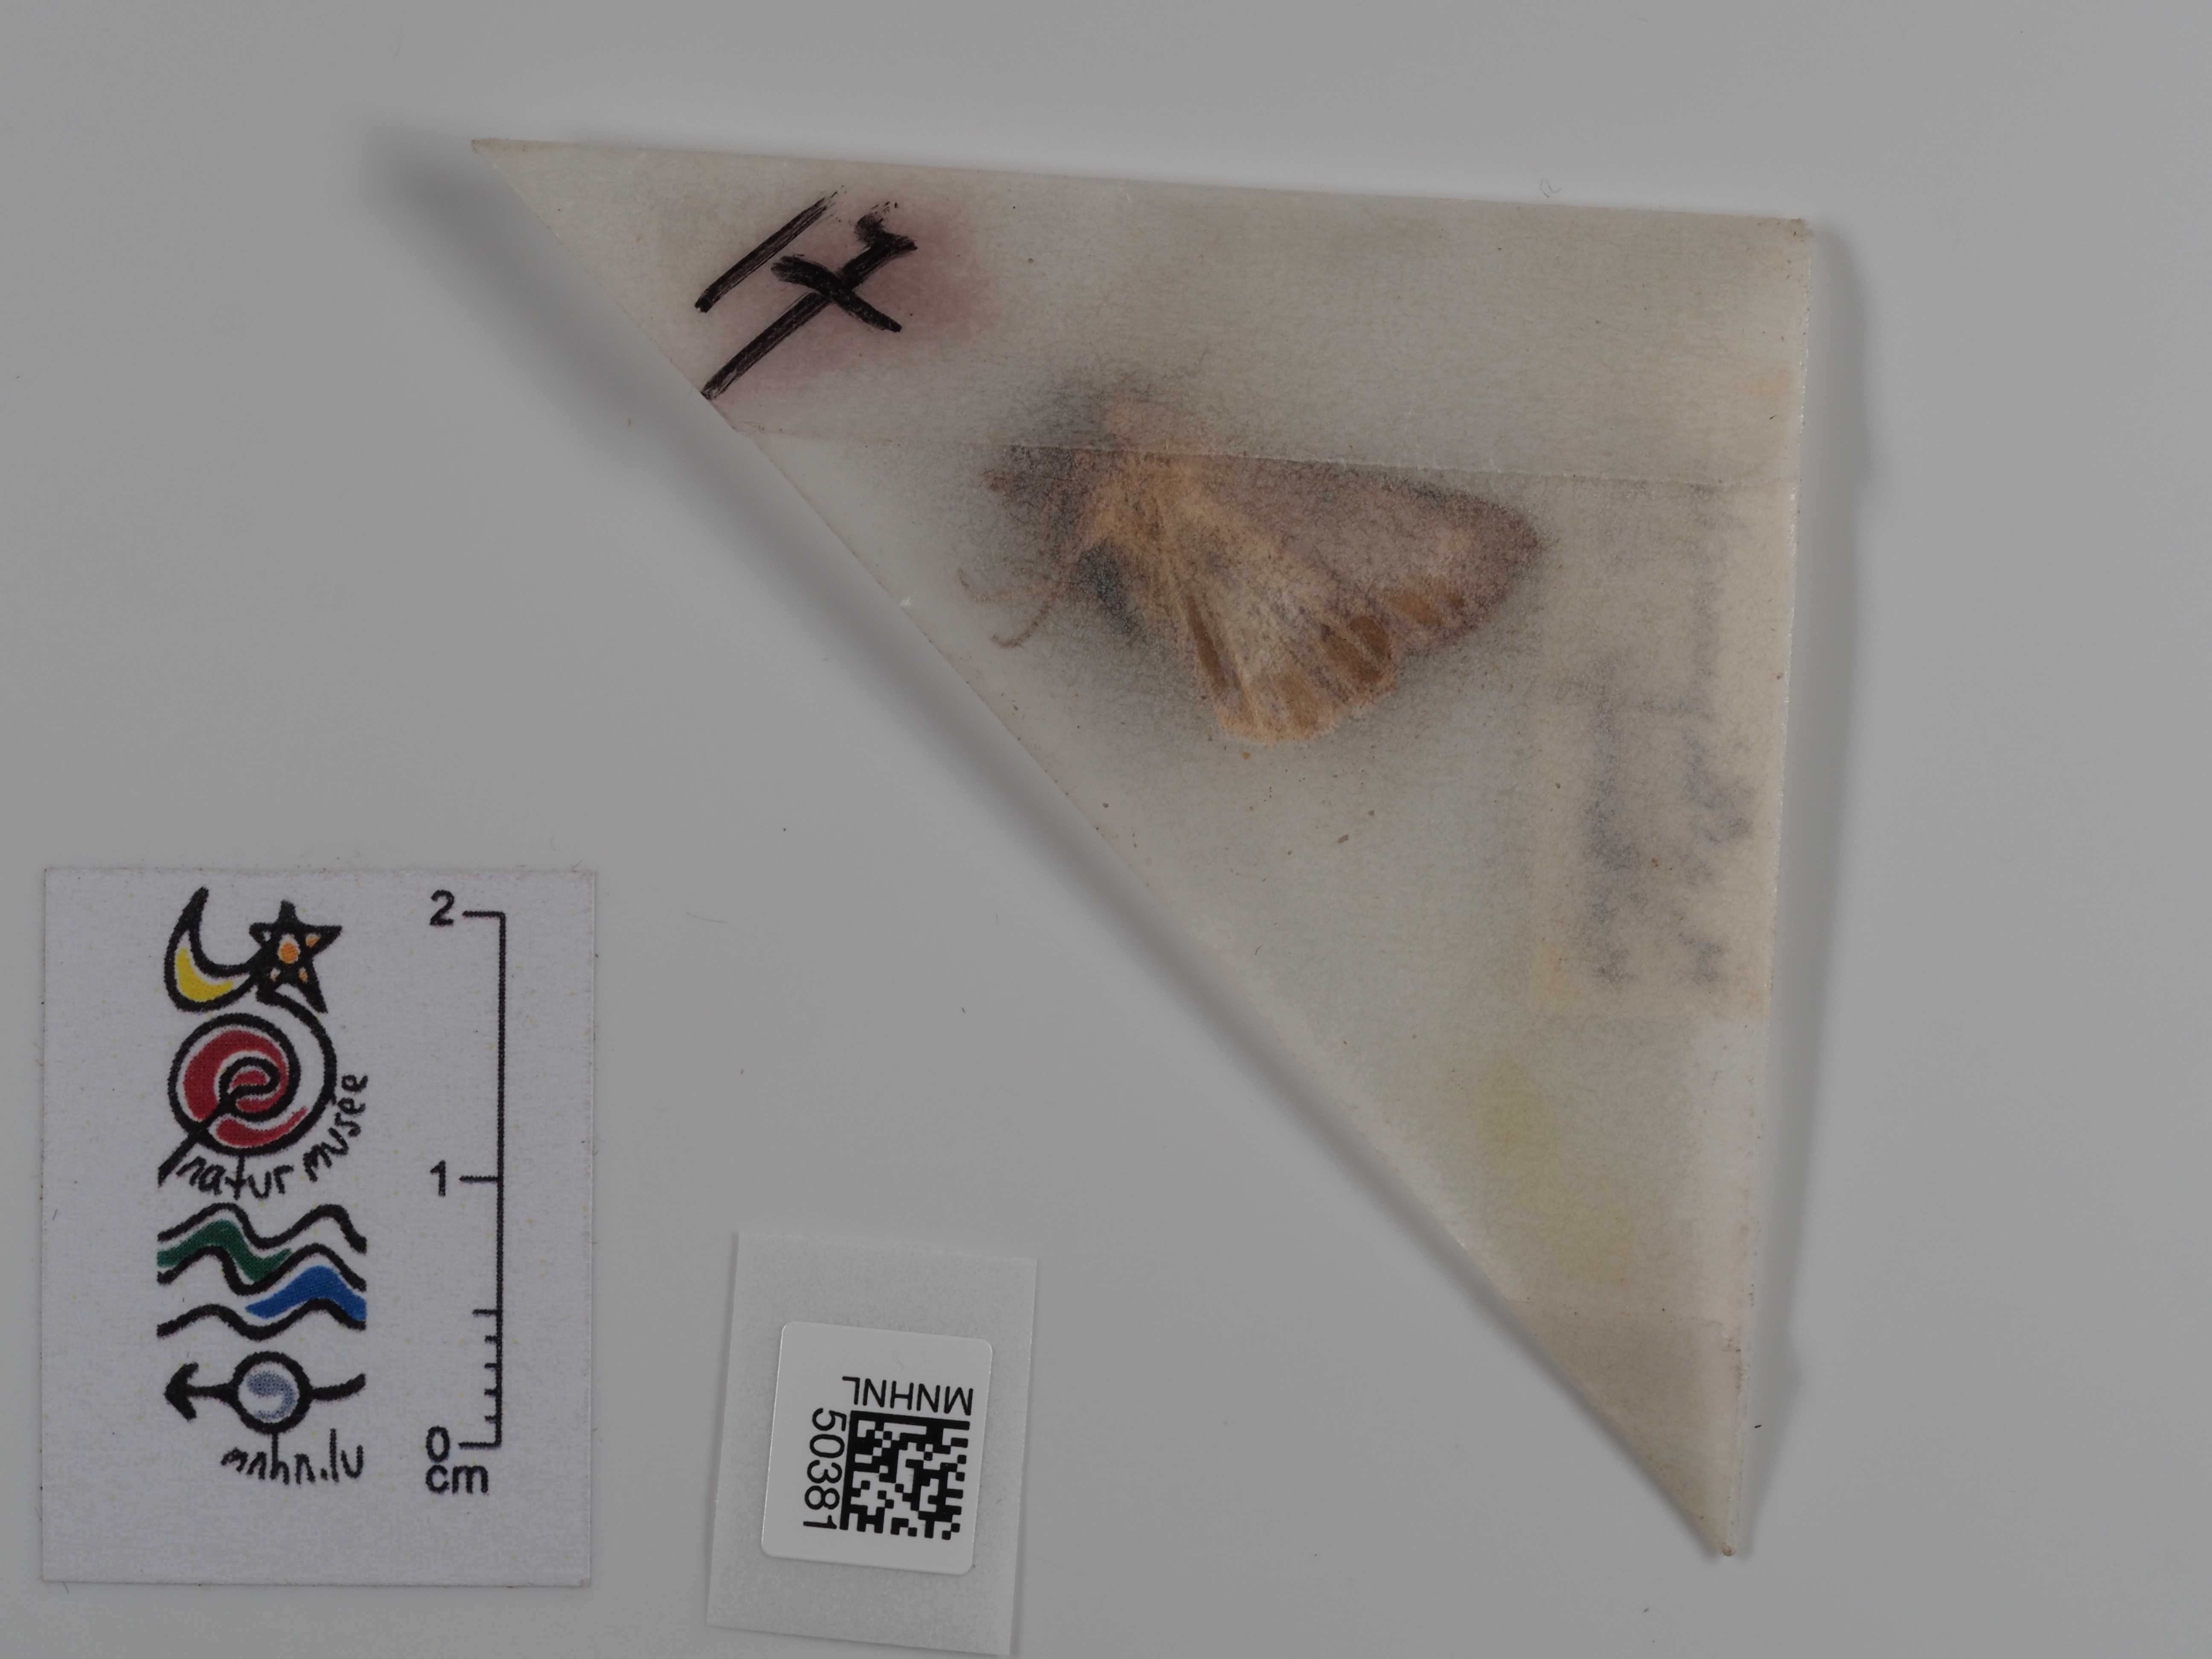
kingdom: Animalia
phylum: Arthropoda
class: Insecta
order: Lepidoptera
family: Noctuidae
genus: Mythimna
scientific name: Mythimna albipuncta
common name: White-point
